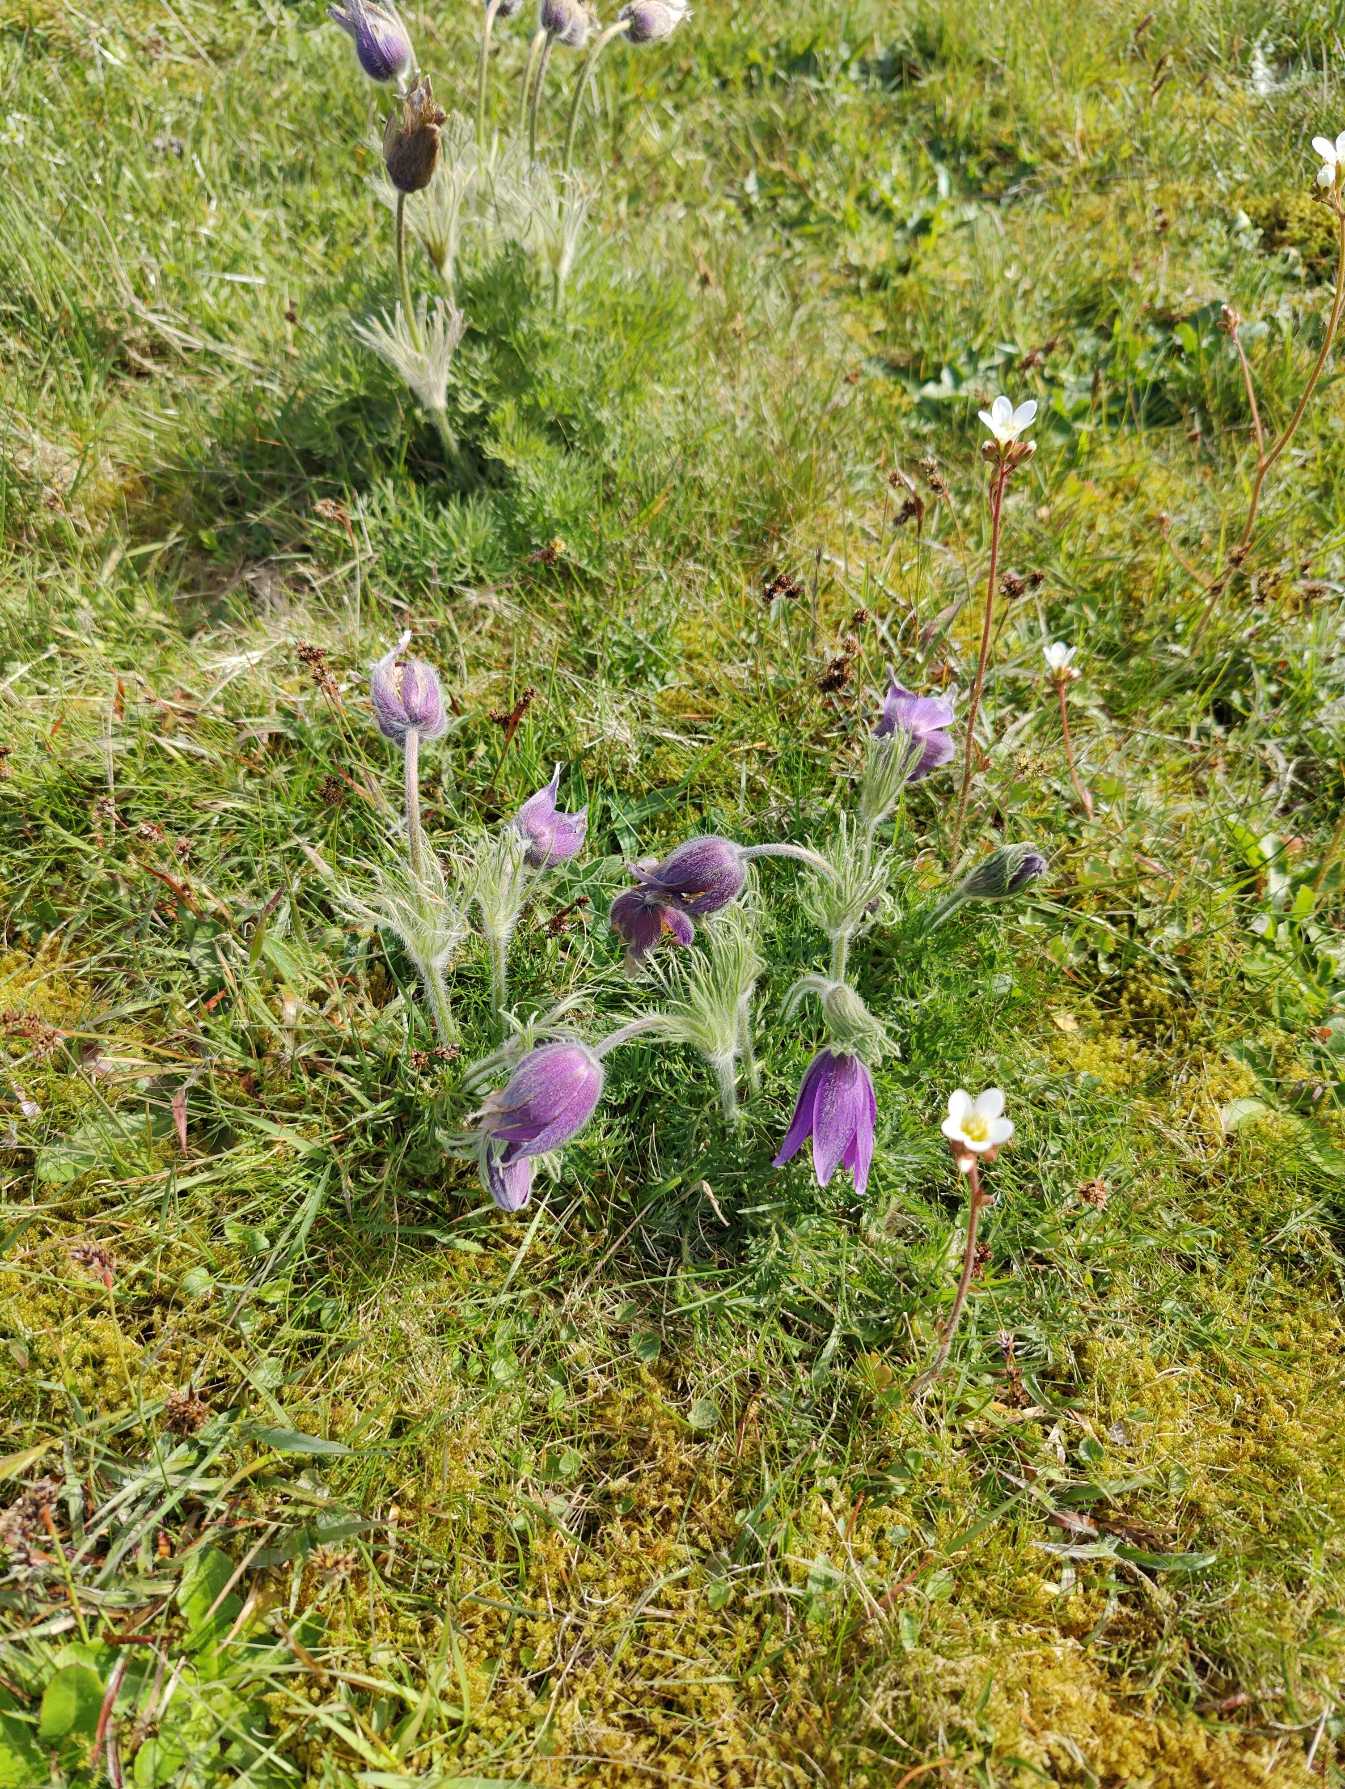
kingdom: Plantae
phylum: Tracheophyta
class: Magnoliopsida
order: Ranunculales
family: Ranunculaceae
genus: Pulsatilla
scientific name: Pulsatilla vulgaris
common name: Opret kobjælde
